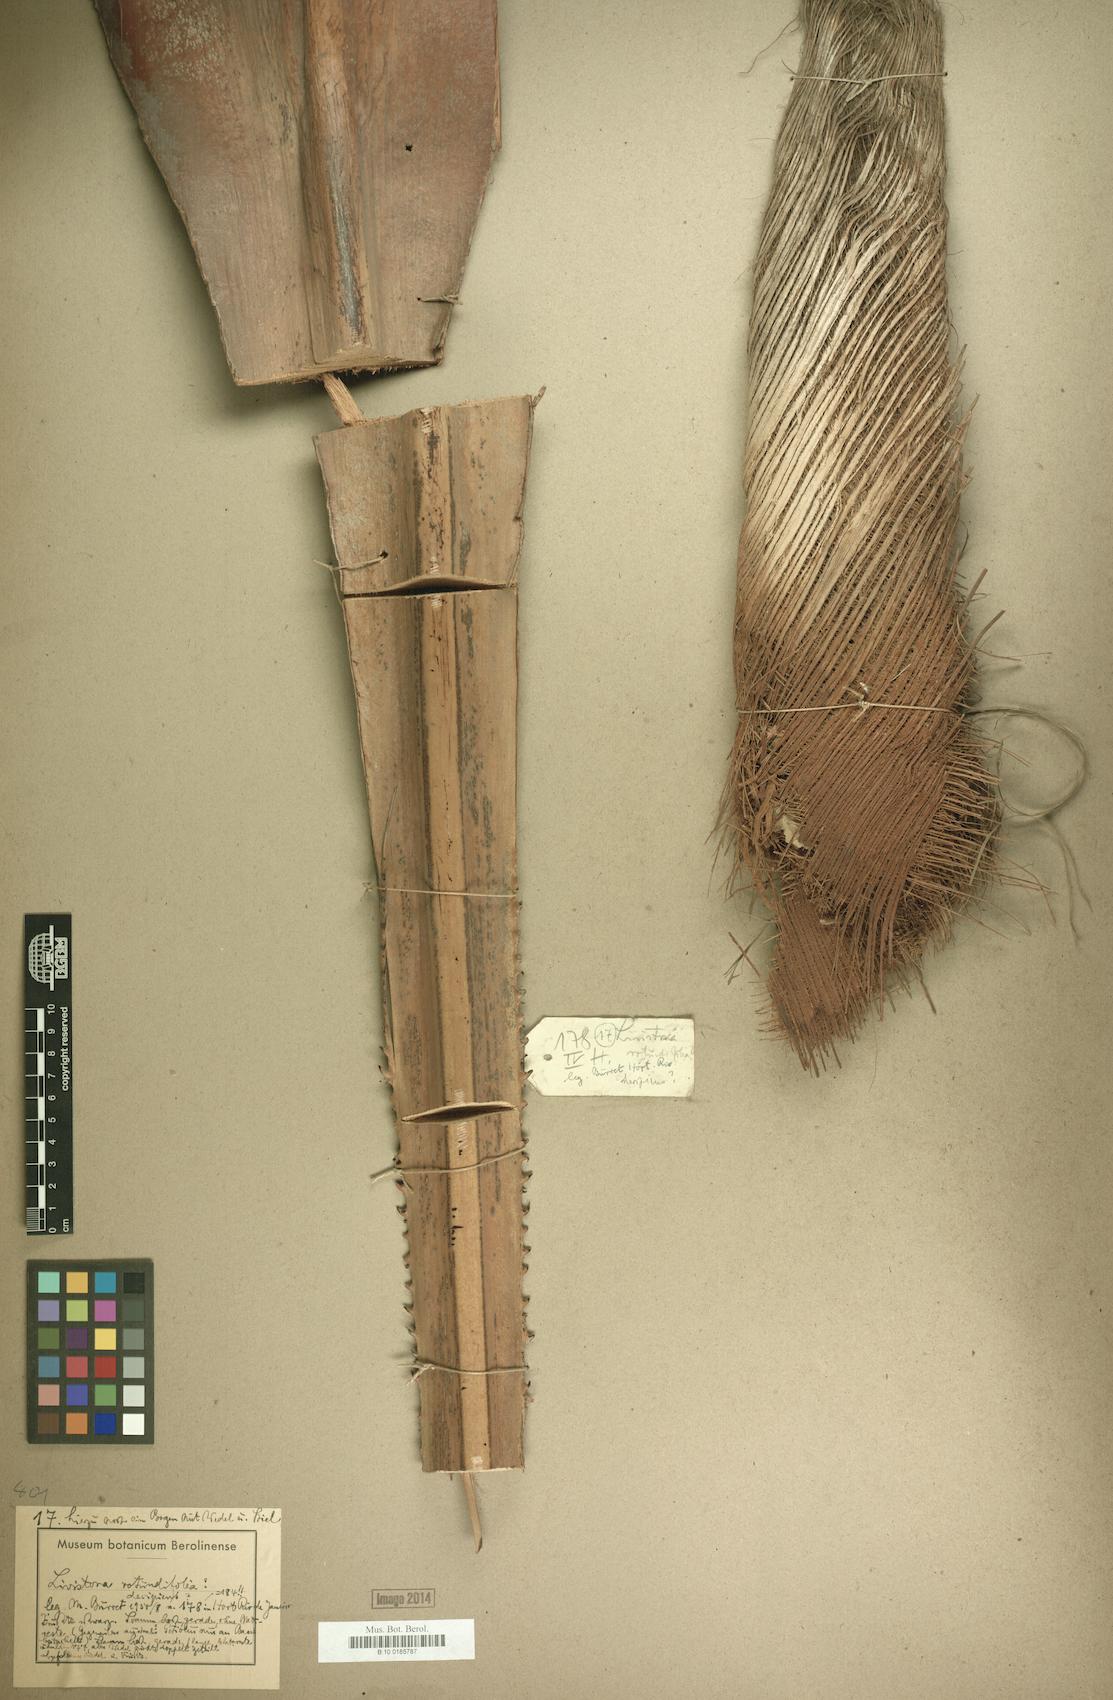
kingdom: Plantae
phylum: Tracheophyta
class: Liliopsida
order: Arecales
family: Arecaceae
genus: Saribus
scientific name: Saribus rotundifolius
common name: Palm
